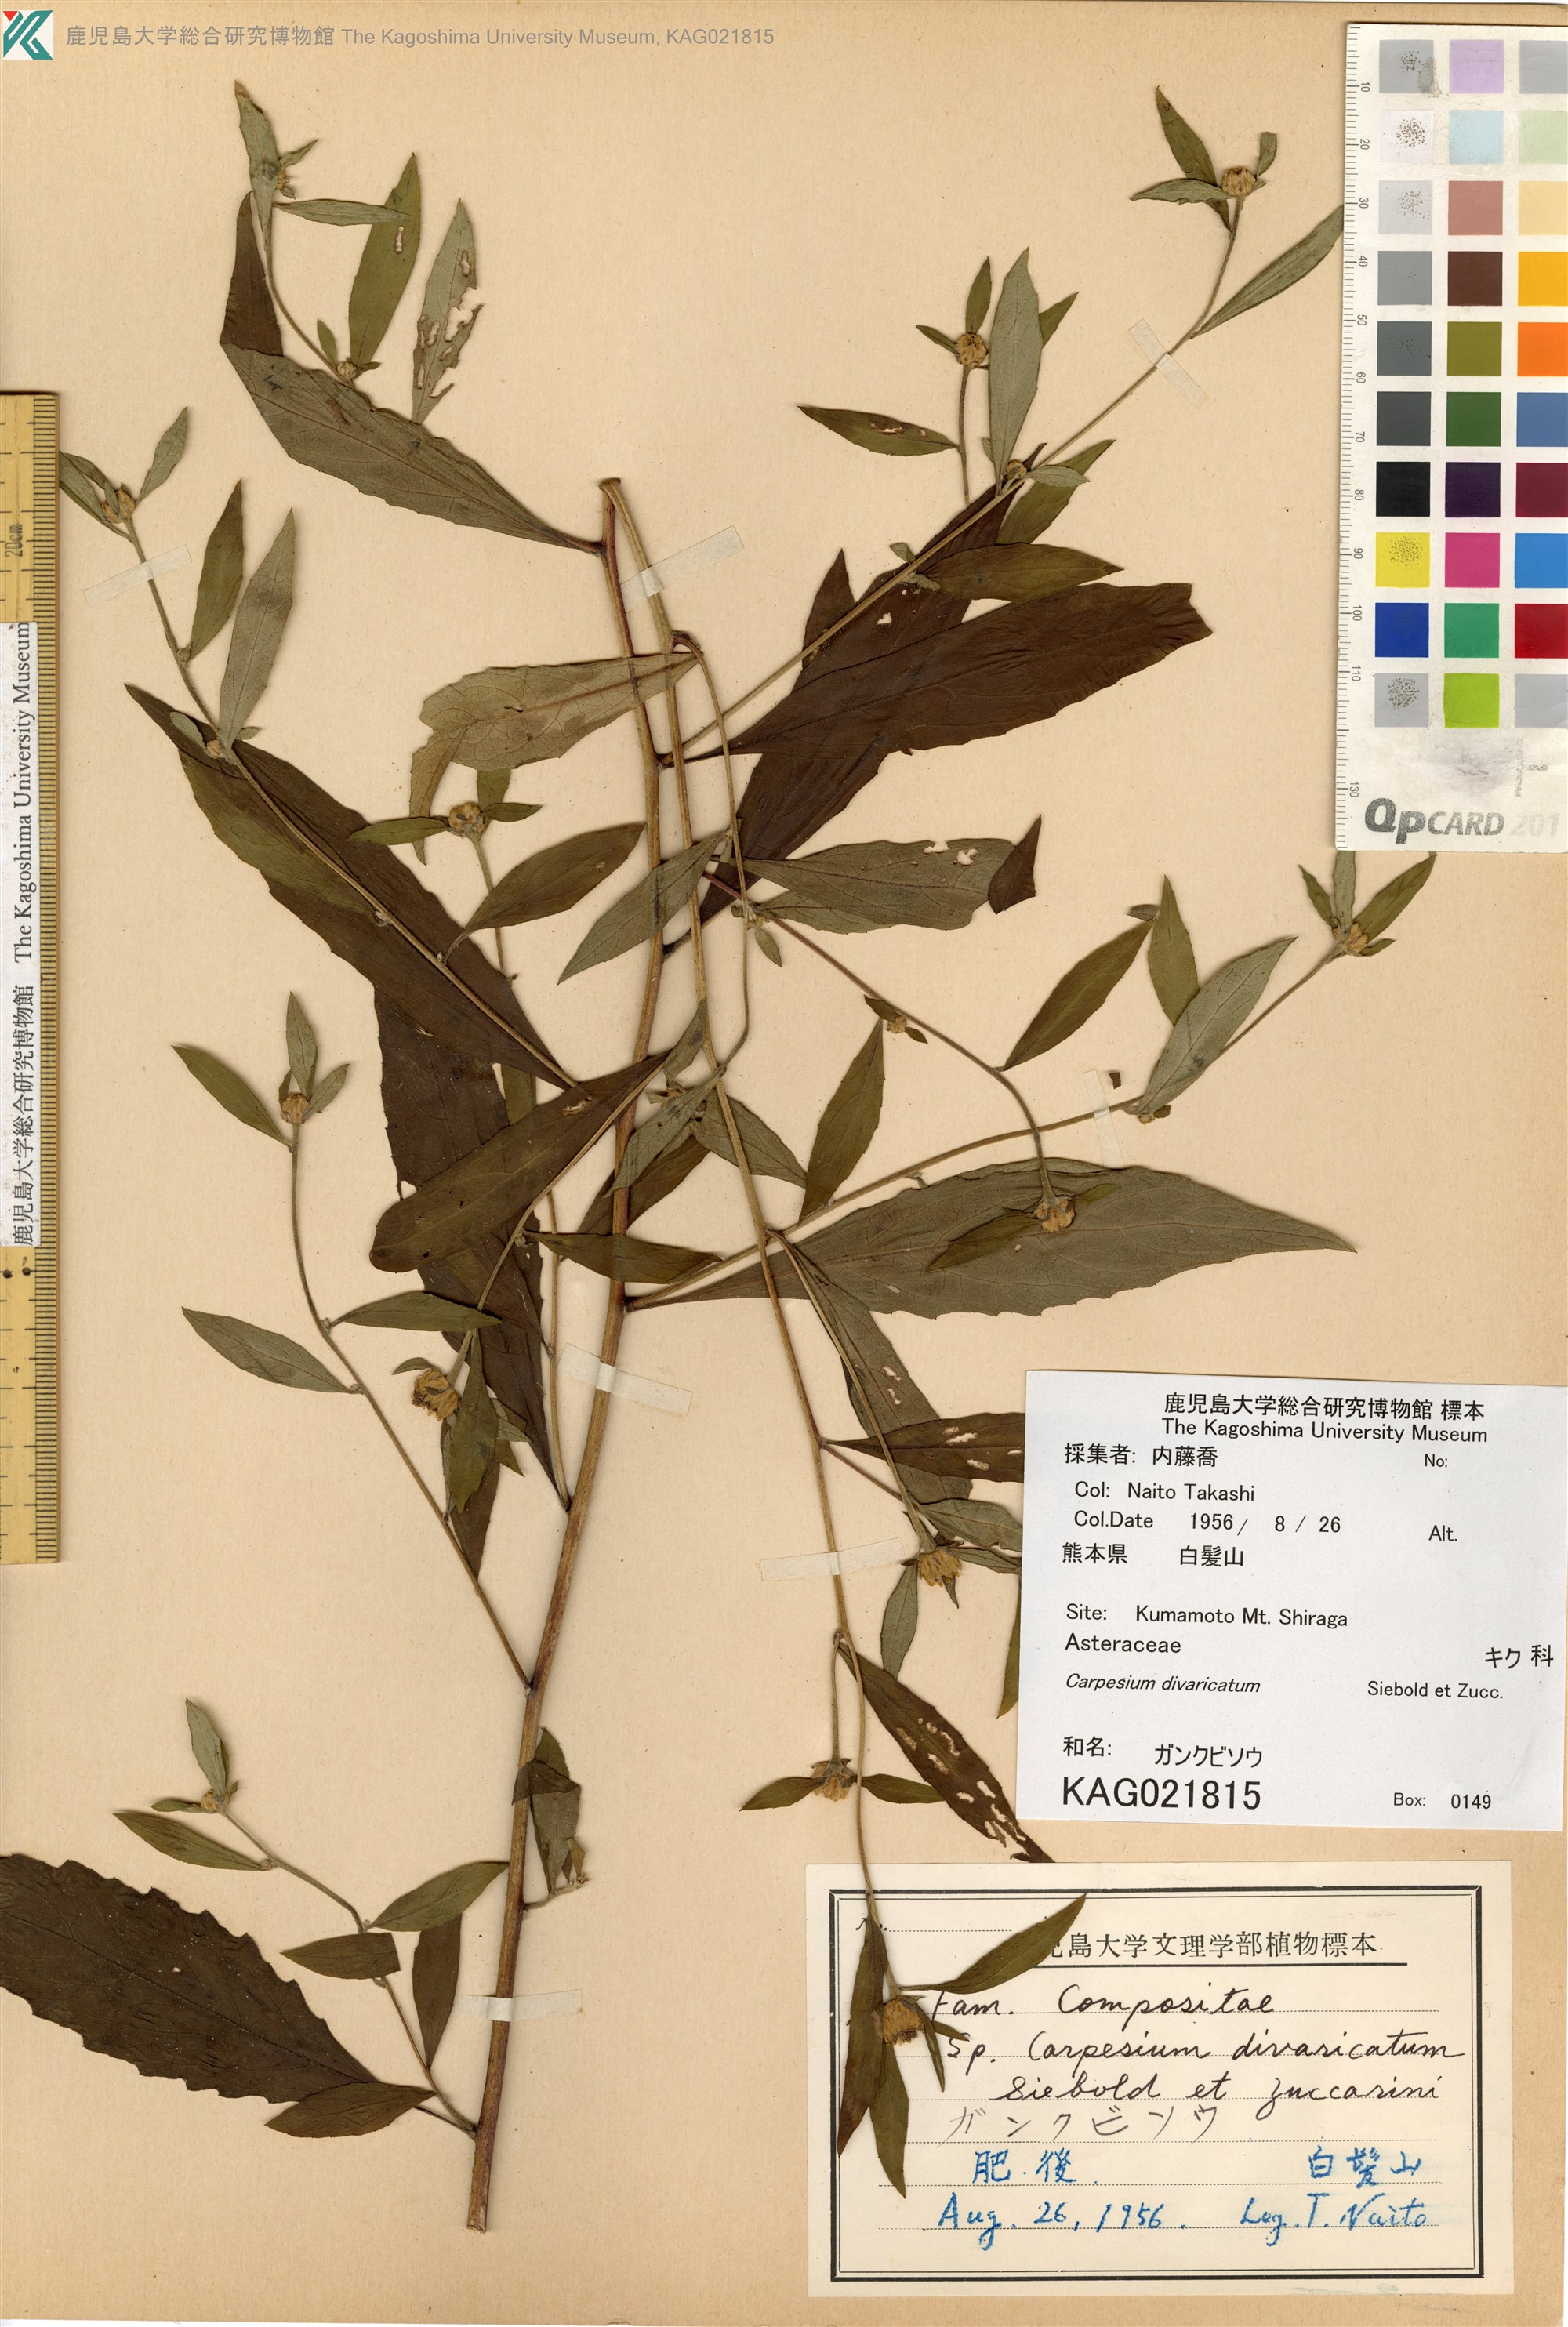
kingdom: Plantae
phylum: Tracheophyta
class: Magnoliopsida
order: Asterales
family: Asteraceae
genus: Carpesium
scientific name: Carpesium divaricatum
